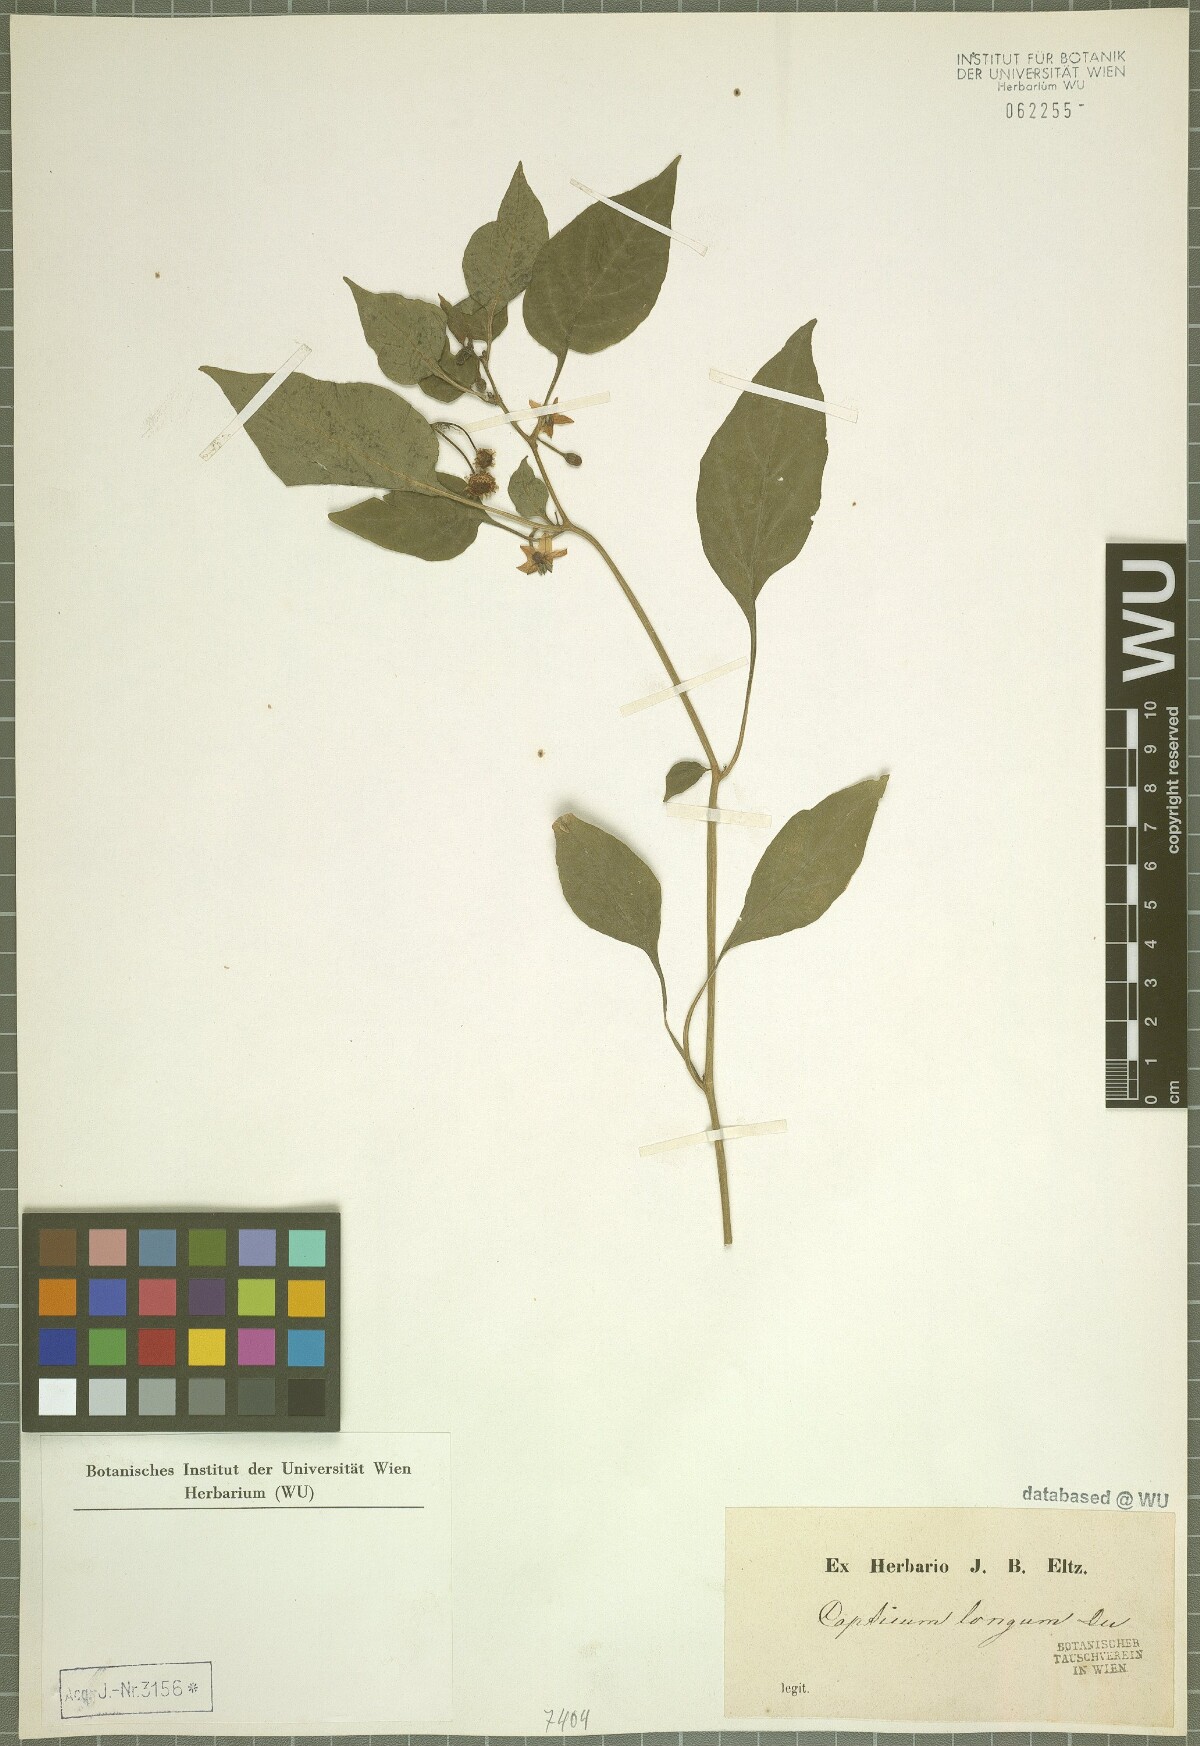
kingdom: Plantae
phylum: Tracheophyta
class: Magnoliopsida
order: Solanales
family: Solanaceae
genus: Capsicum
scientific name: Capsicum annuum
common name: Sweet pepper
